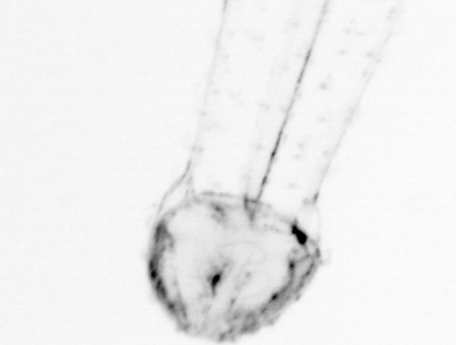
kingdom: Animalia
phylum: Chaetognatha
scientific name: Chaetognatha
